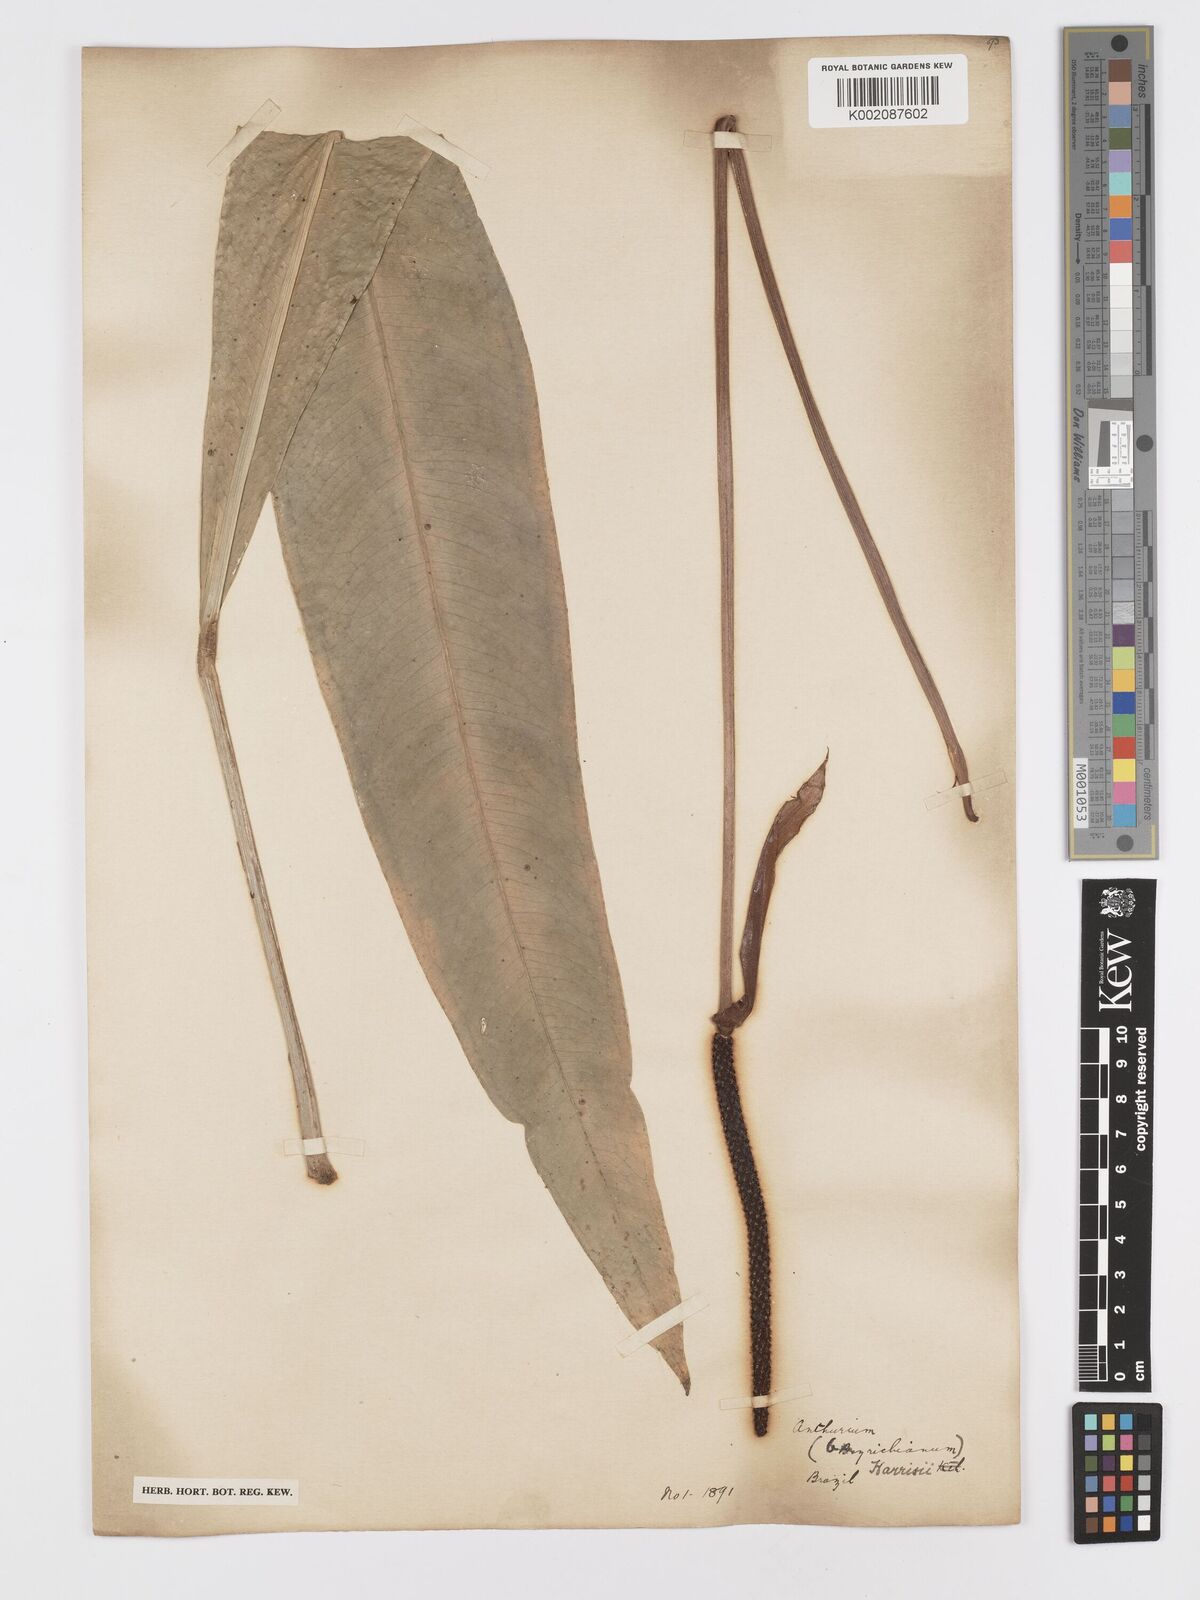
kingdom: Plantae
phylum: Tracheophyta
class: Liliopsida
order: Alismatales
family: Araceae
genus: Anthurium
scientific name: Anthurium harrisii
